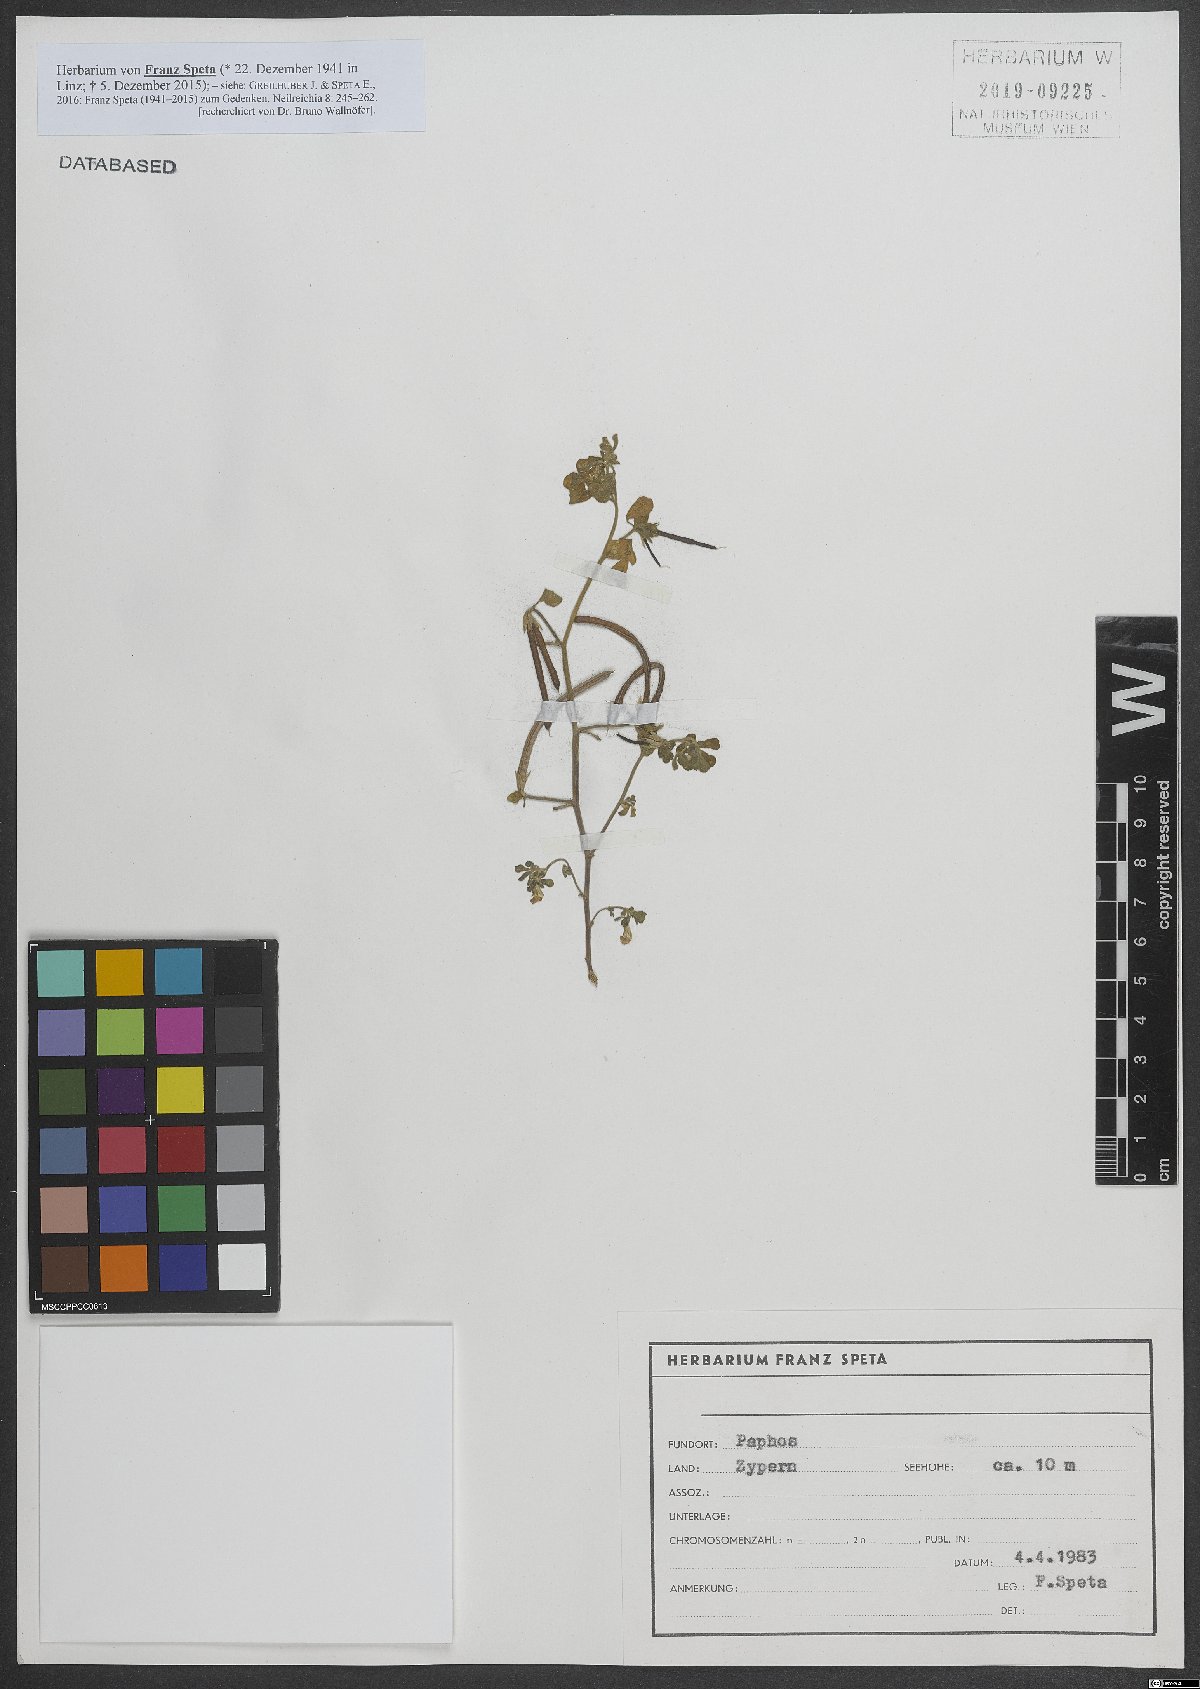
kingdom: Plantae
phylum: Tracheophyta
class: Magnoliopsida
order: Fabales
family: Fabaceae
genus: Lotus
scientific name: Lotus
